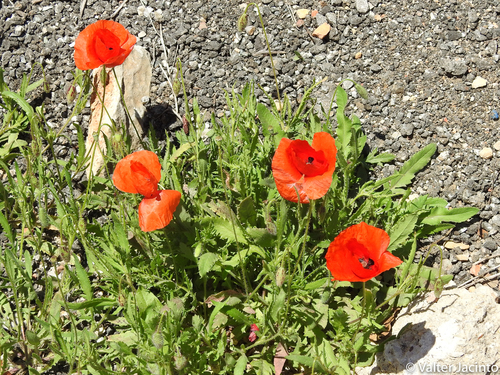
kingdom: Plantae
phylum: Tracheophyta
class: Magnoliopsida
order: Ranunculales
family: Papaveraceae
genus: Papaver
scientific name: Papaver dubium
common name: Long-headed poppy
